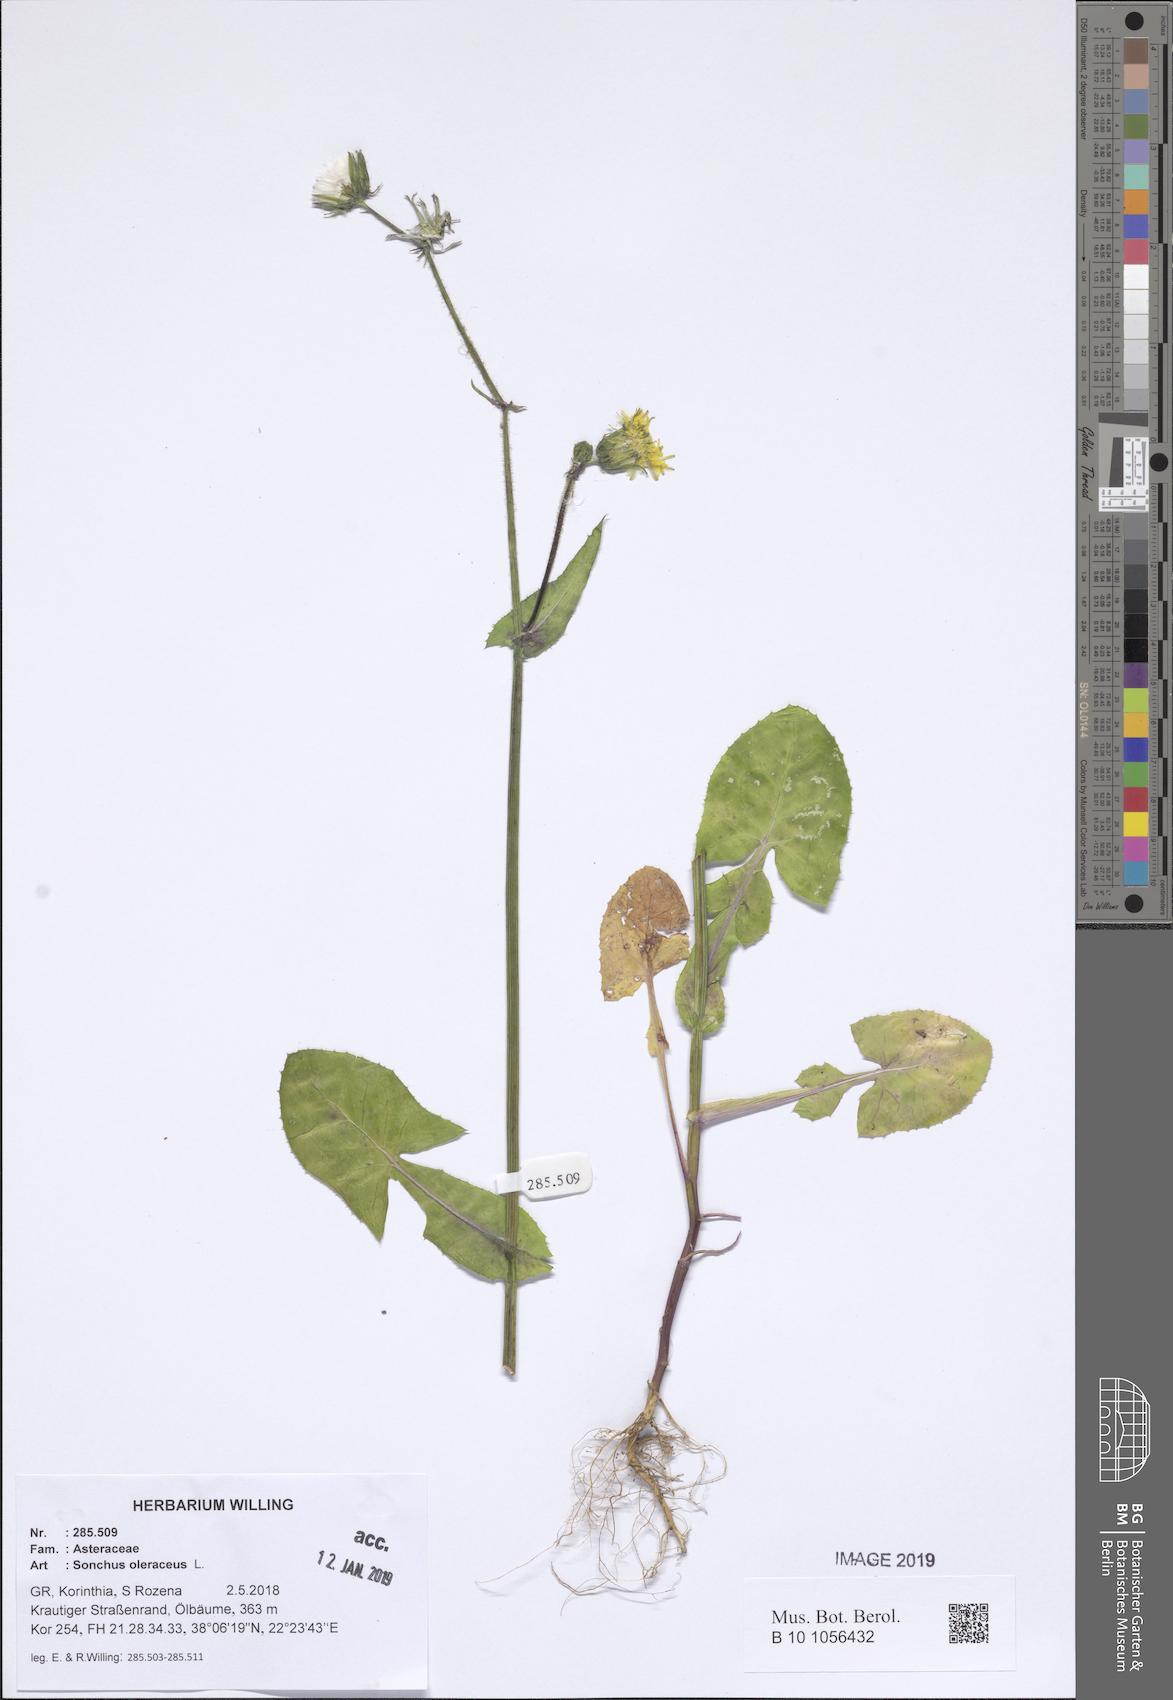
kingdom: Plantae
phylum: Tracheophyta
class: Magnoliopsida
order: Asterales
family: Asteraceae
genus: Sonchus
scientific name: Sonchus oleraceus
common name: Common sowthistle
